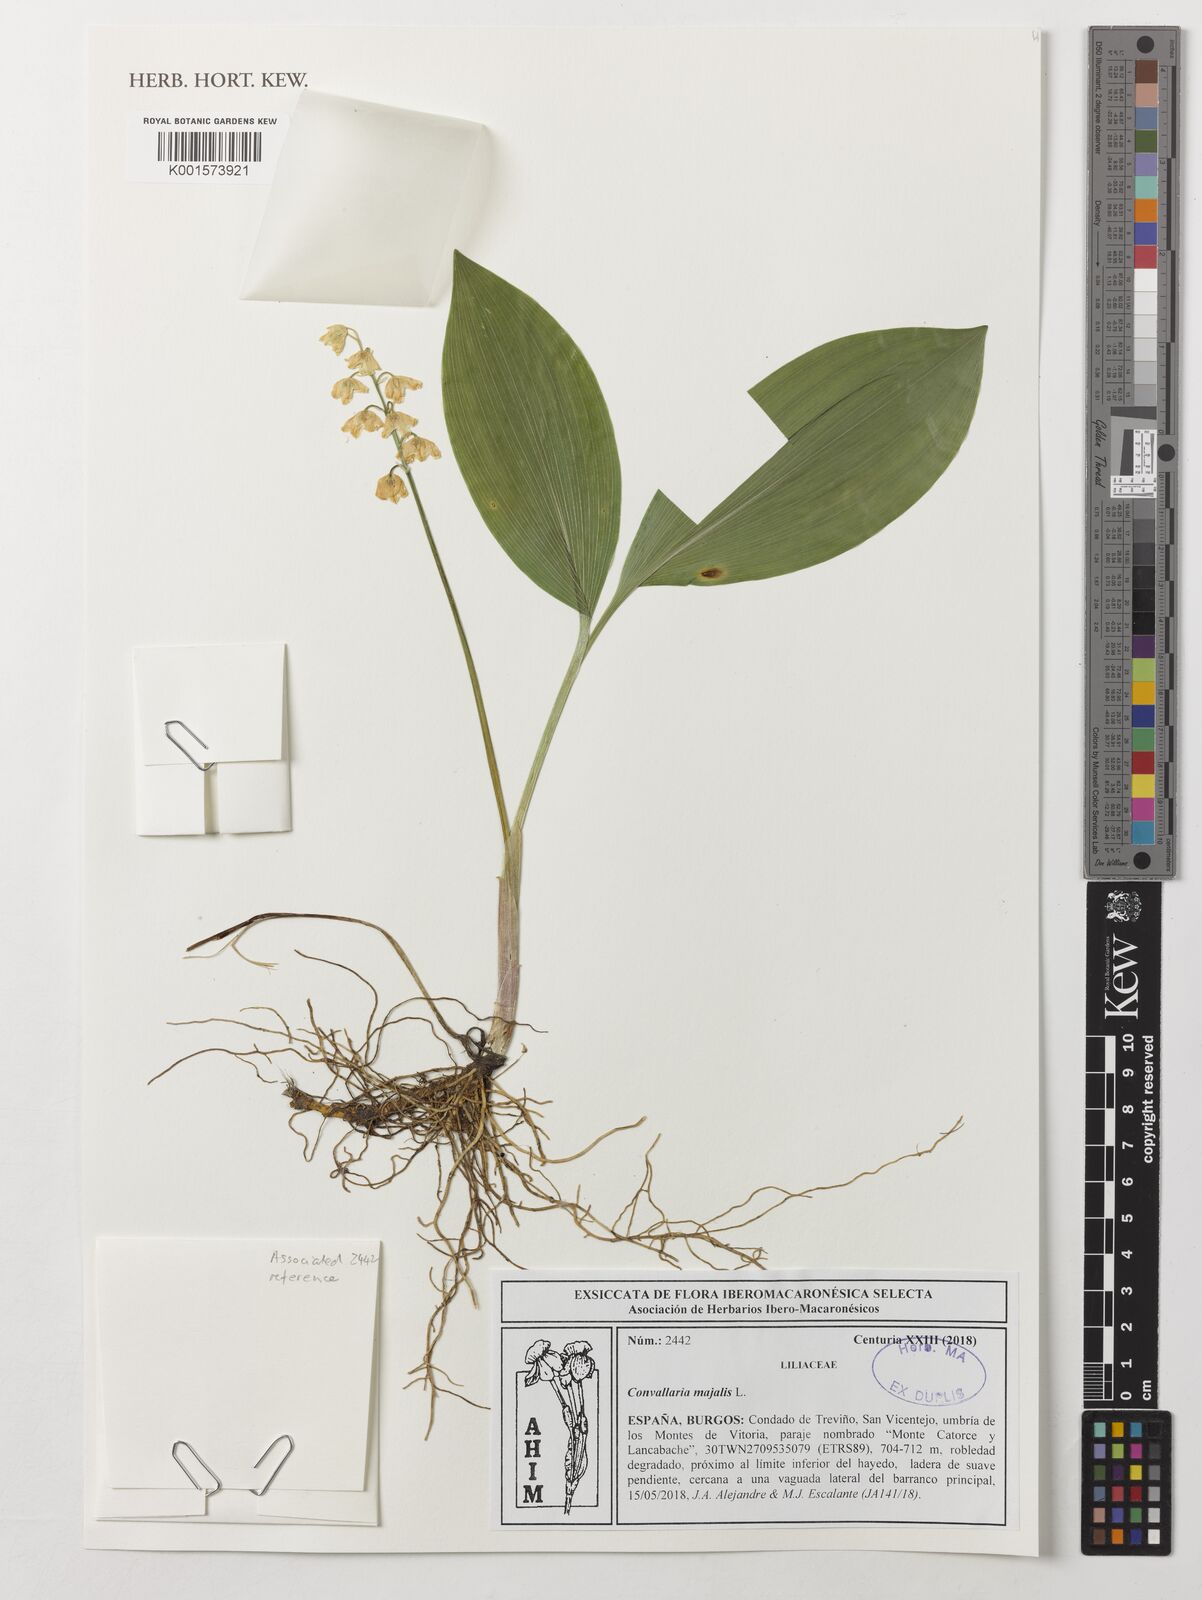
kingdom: Plantae
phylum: Tracheophyta
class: Liliopsida
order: Asparagales
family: Asparagaceae
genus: Convallaria
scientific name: Convallaria majalis
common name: Lily-of-the-valley
